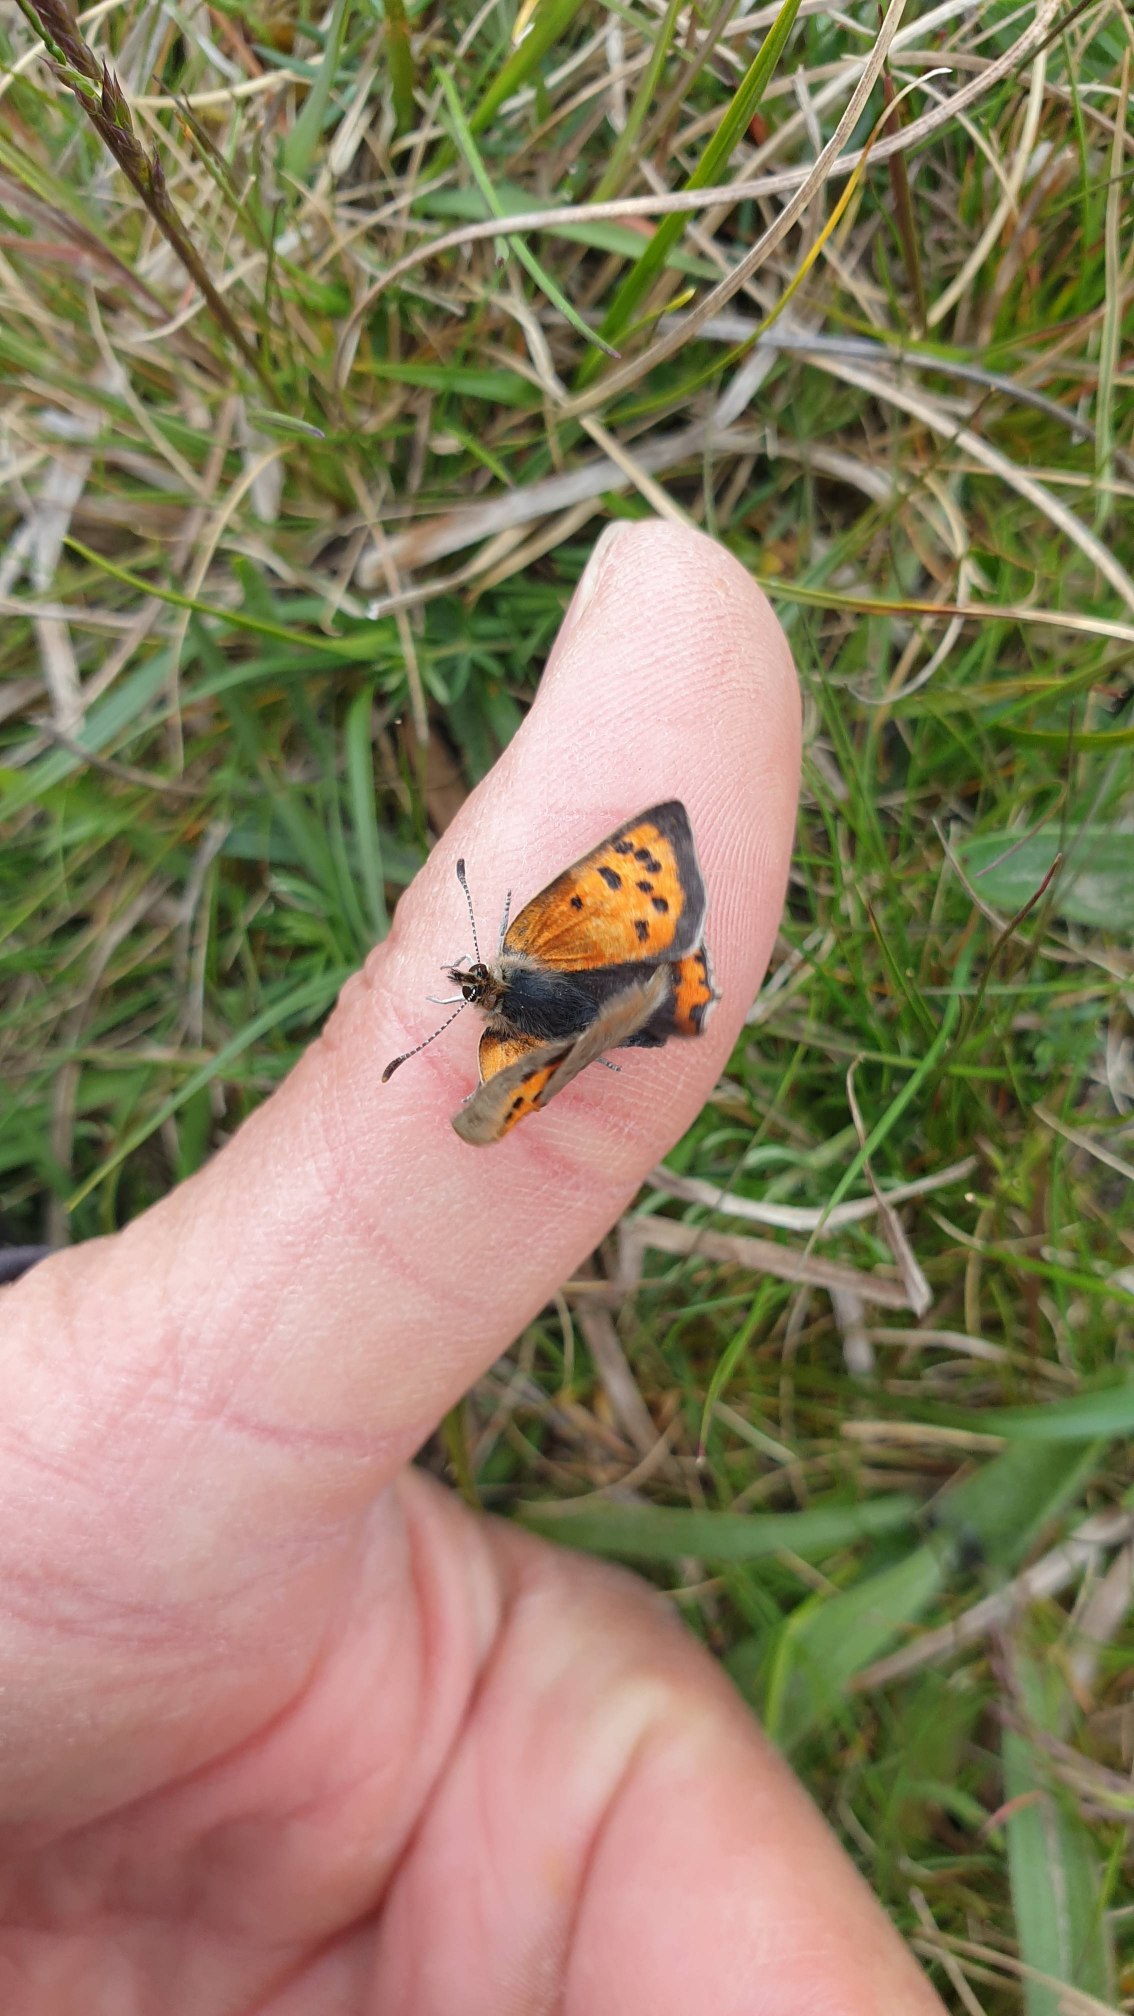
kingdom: Animalia
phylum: Arthropoda
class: Insecta
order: Lepidoptera
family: Lycaenidae
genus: Lycaena
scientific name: Lycaena phlaeas
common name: Lille ildfugl
